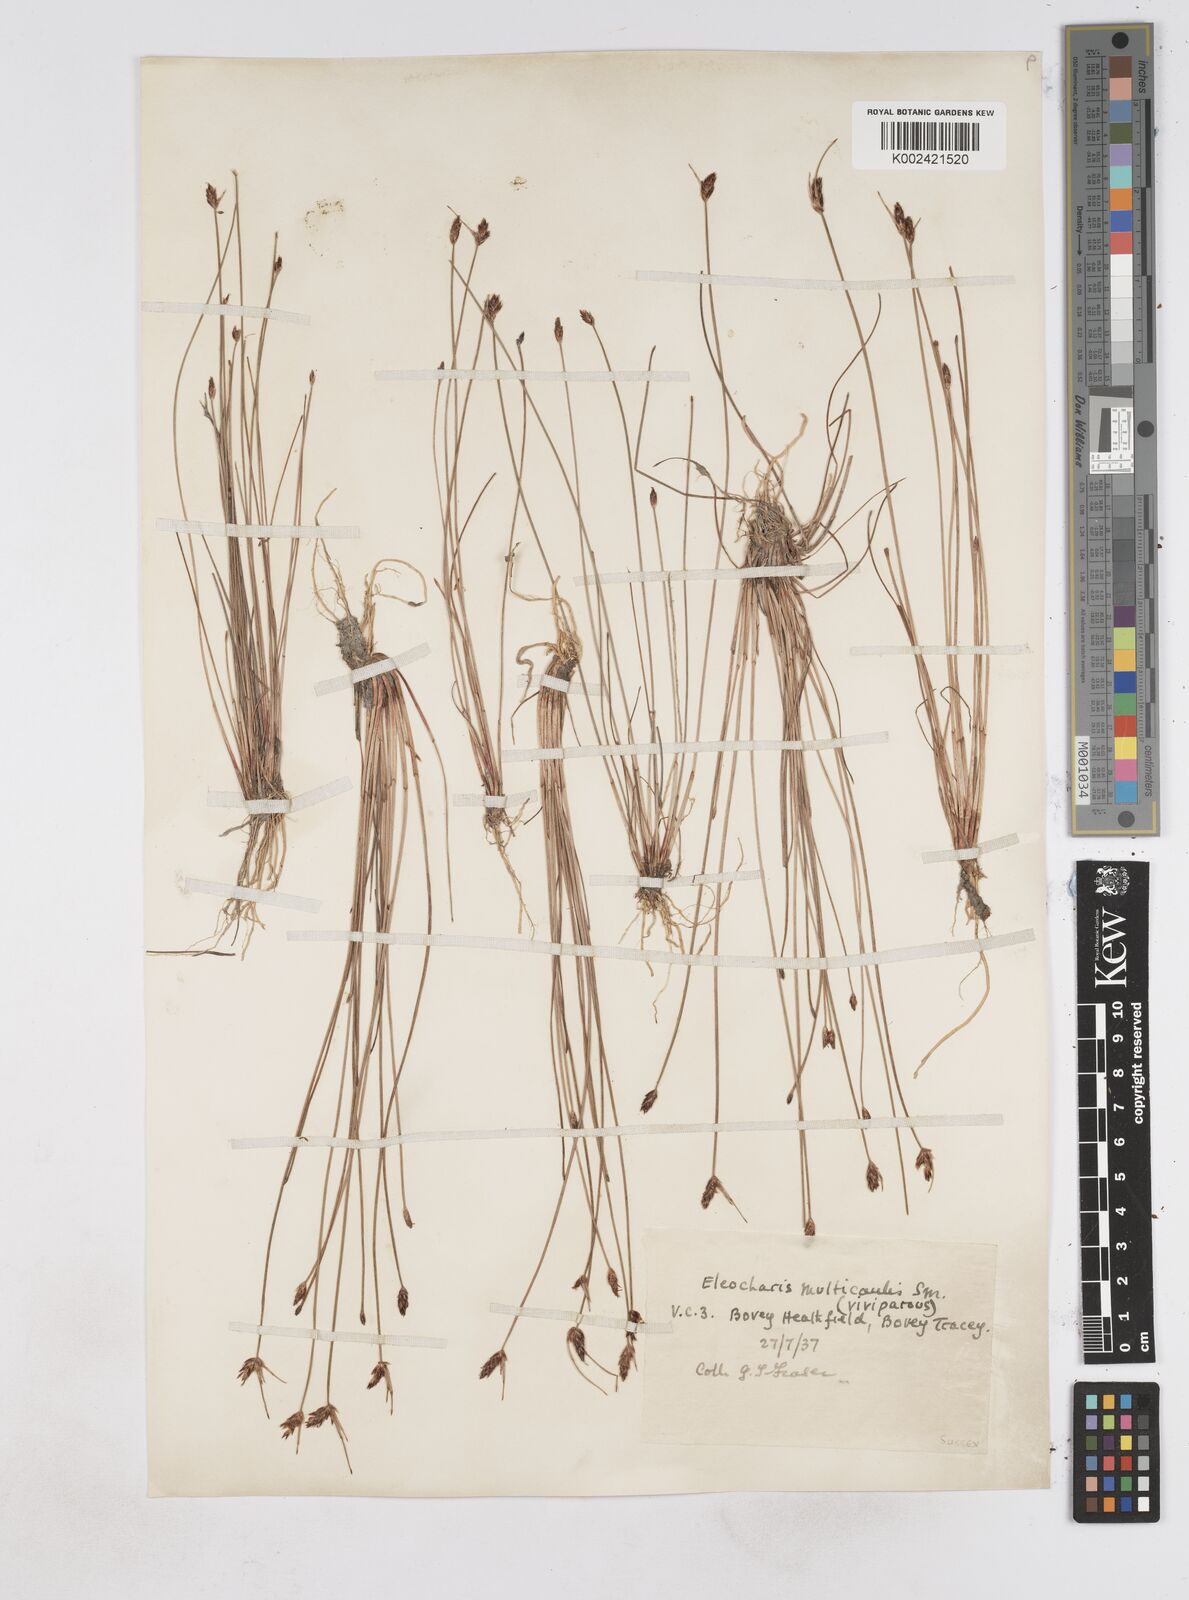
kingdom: Plantae
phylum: Tracheophyta
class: Liliopsida
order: Poales
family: Cyperaceae
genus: Eleocharis
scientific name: Eleocharis multicaulis
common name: Many-stalked spike-rush
